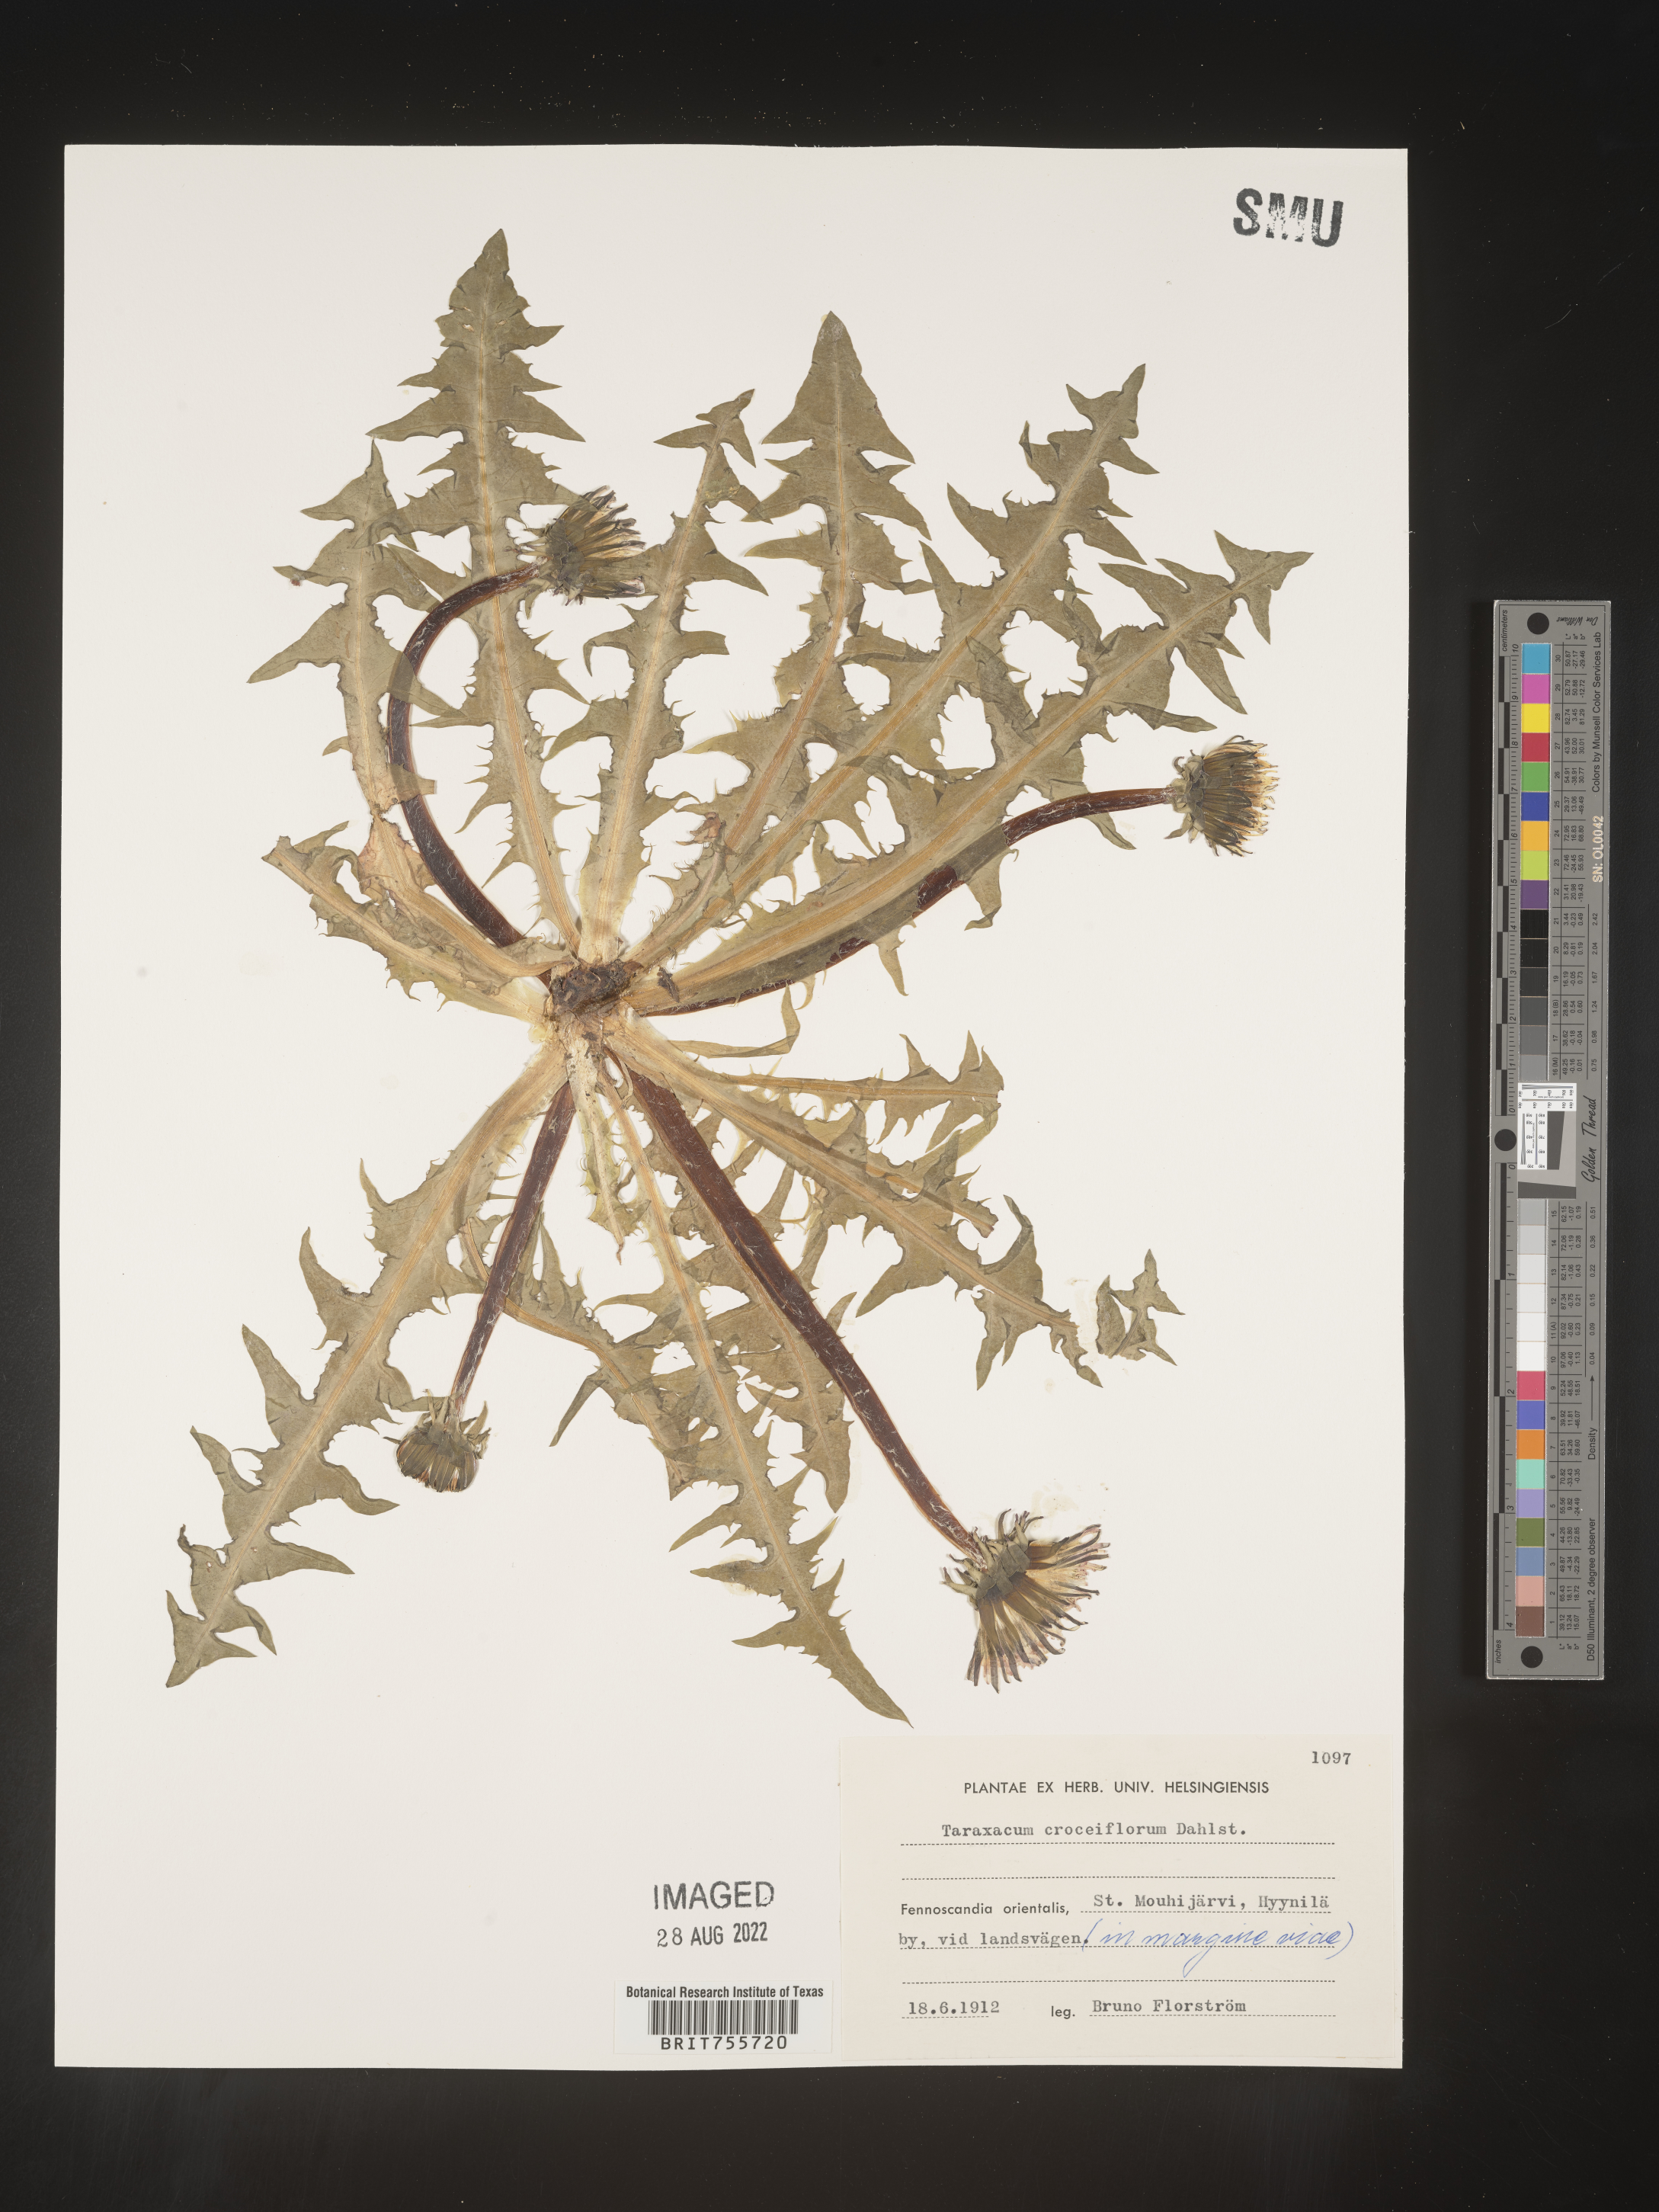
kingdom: Plantae
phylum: Tracheophyta
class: Magnoliopsida
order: Asterales
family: Asteraceae
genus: Taraxacum
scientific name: Taraxacum
